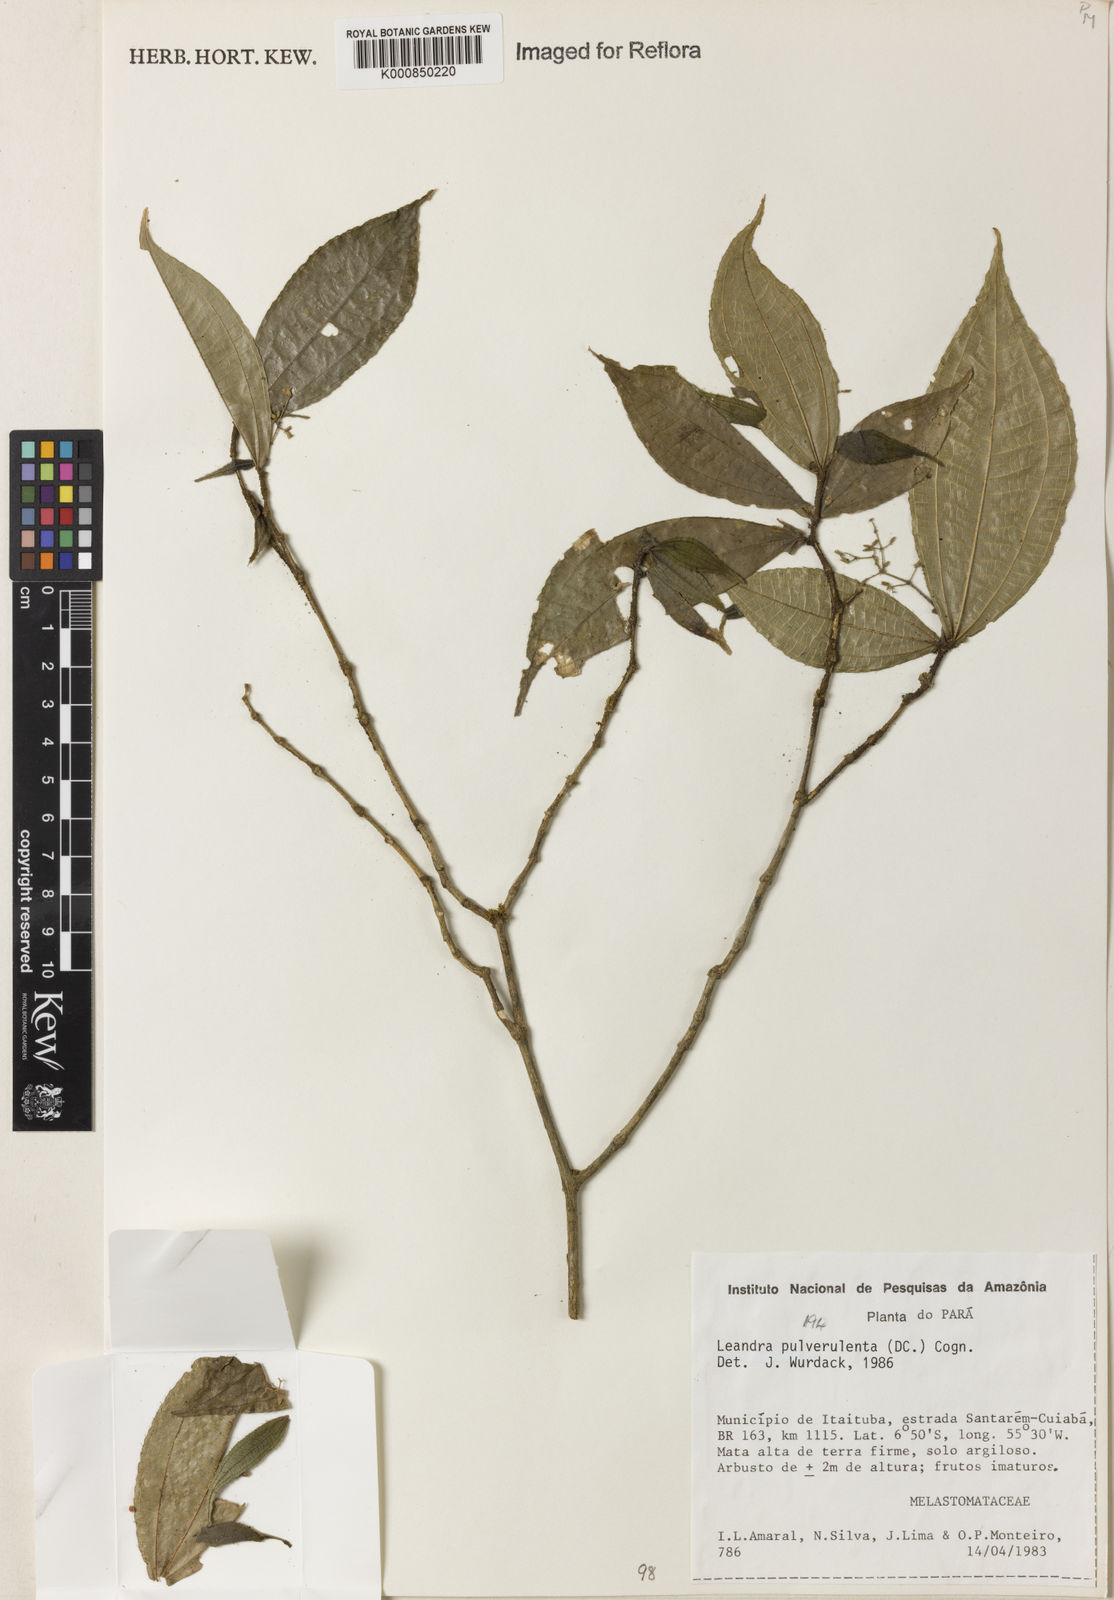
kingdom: Plantae
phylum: Tracheophyta
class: Magnoliopsida
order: Myrtales
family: Melastomataceae
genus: Miconia
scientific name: Miconia aliquantula
